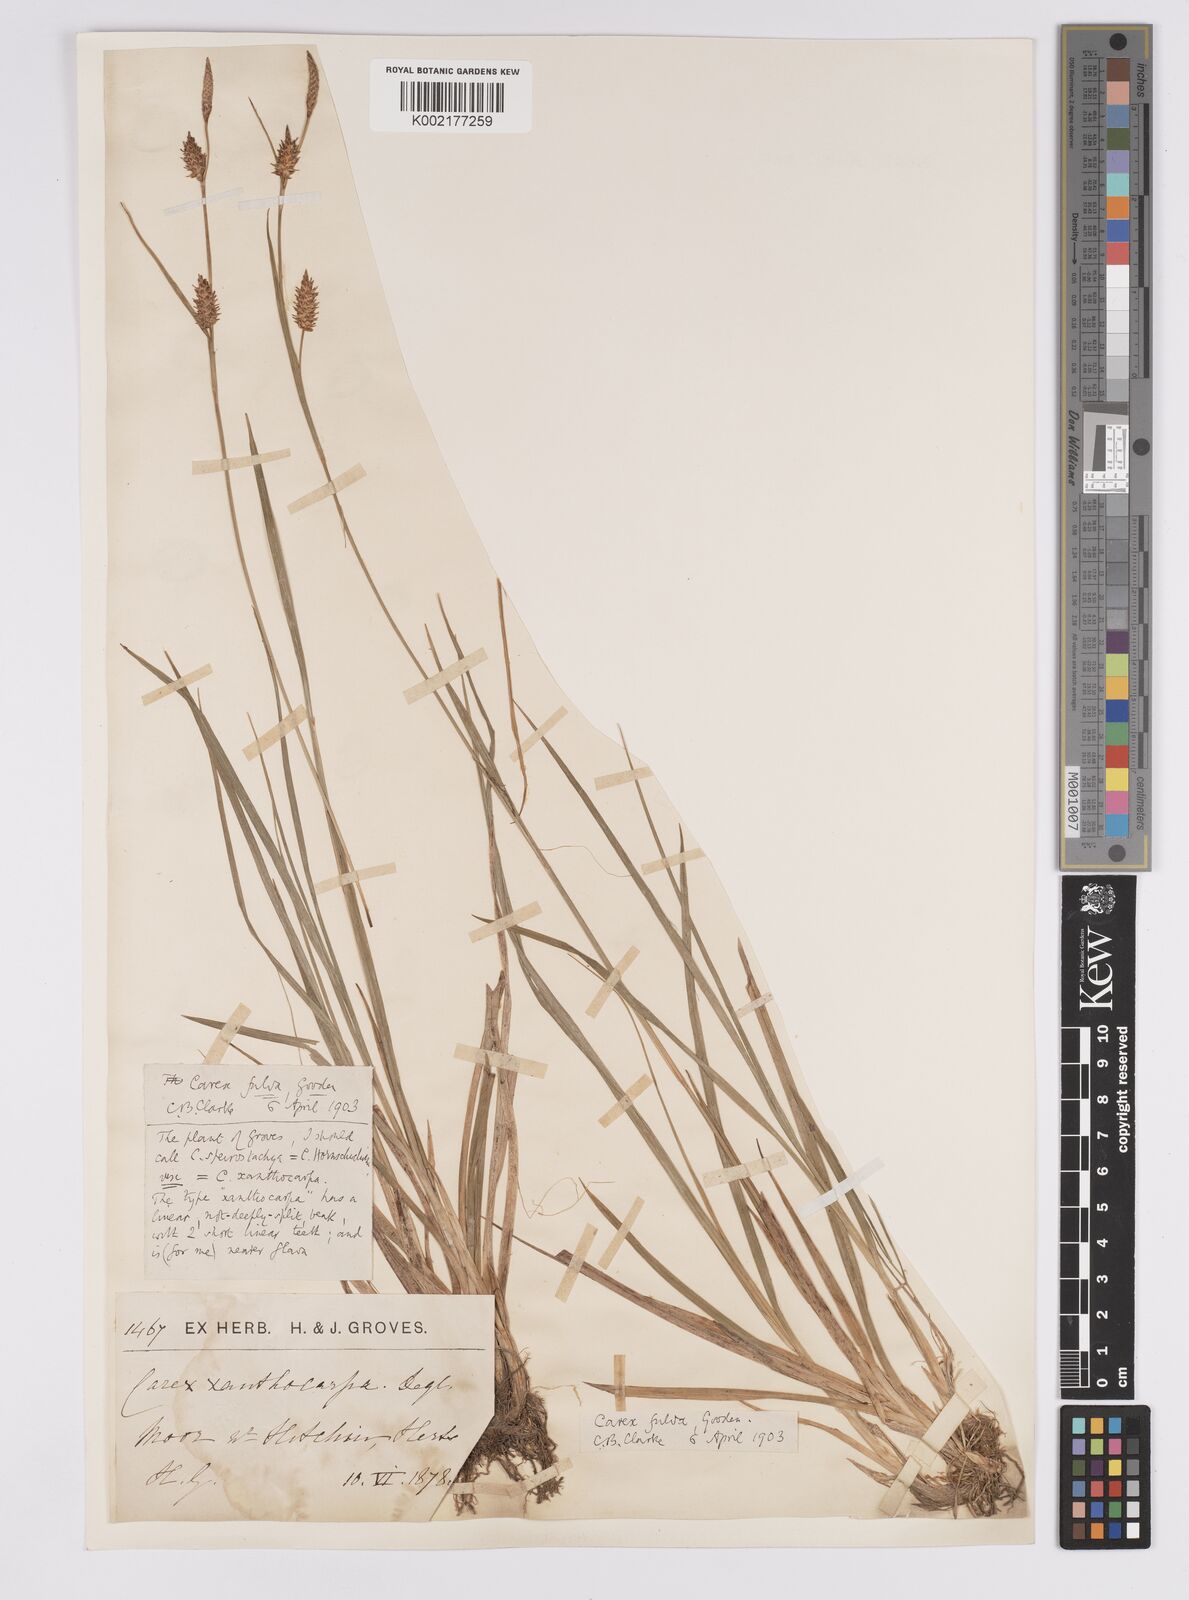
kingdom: Plantae
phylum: Tracheophyta
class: Liliopsida
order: Poales
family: Cyperaceae
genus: Carex
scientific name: Carex hostiana
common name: Tawny sedge
